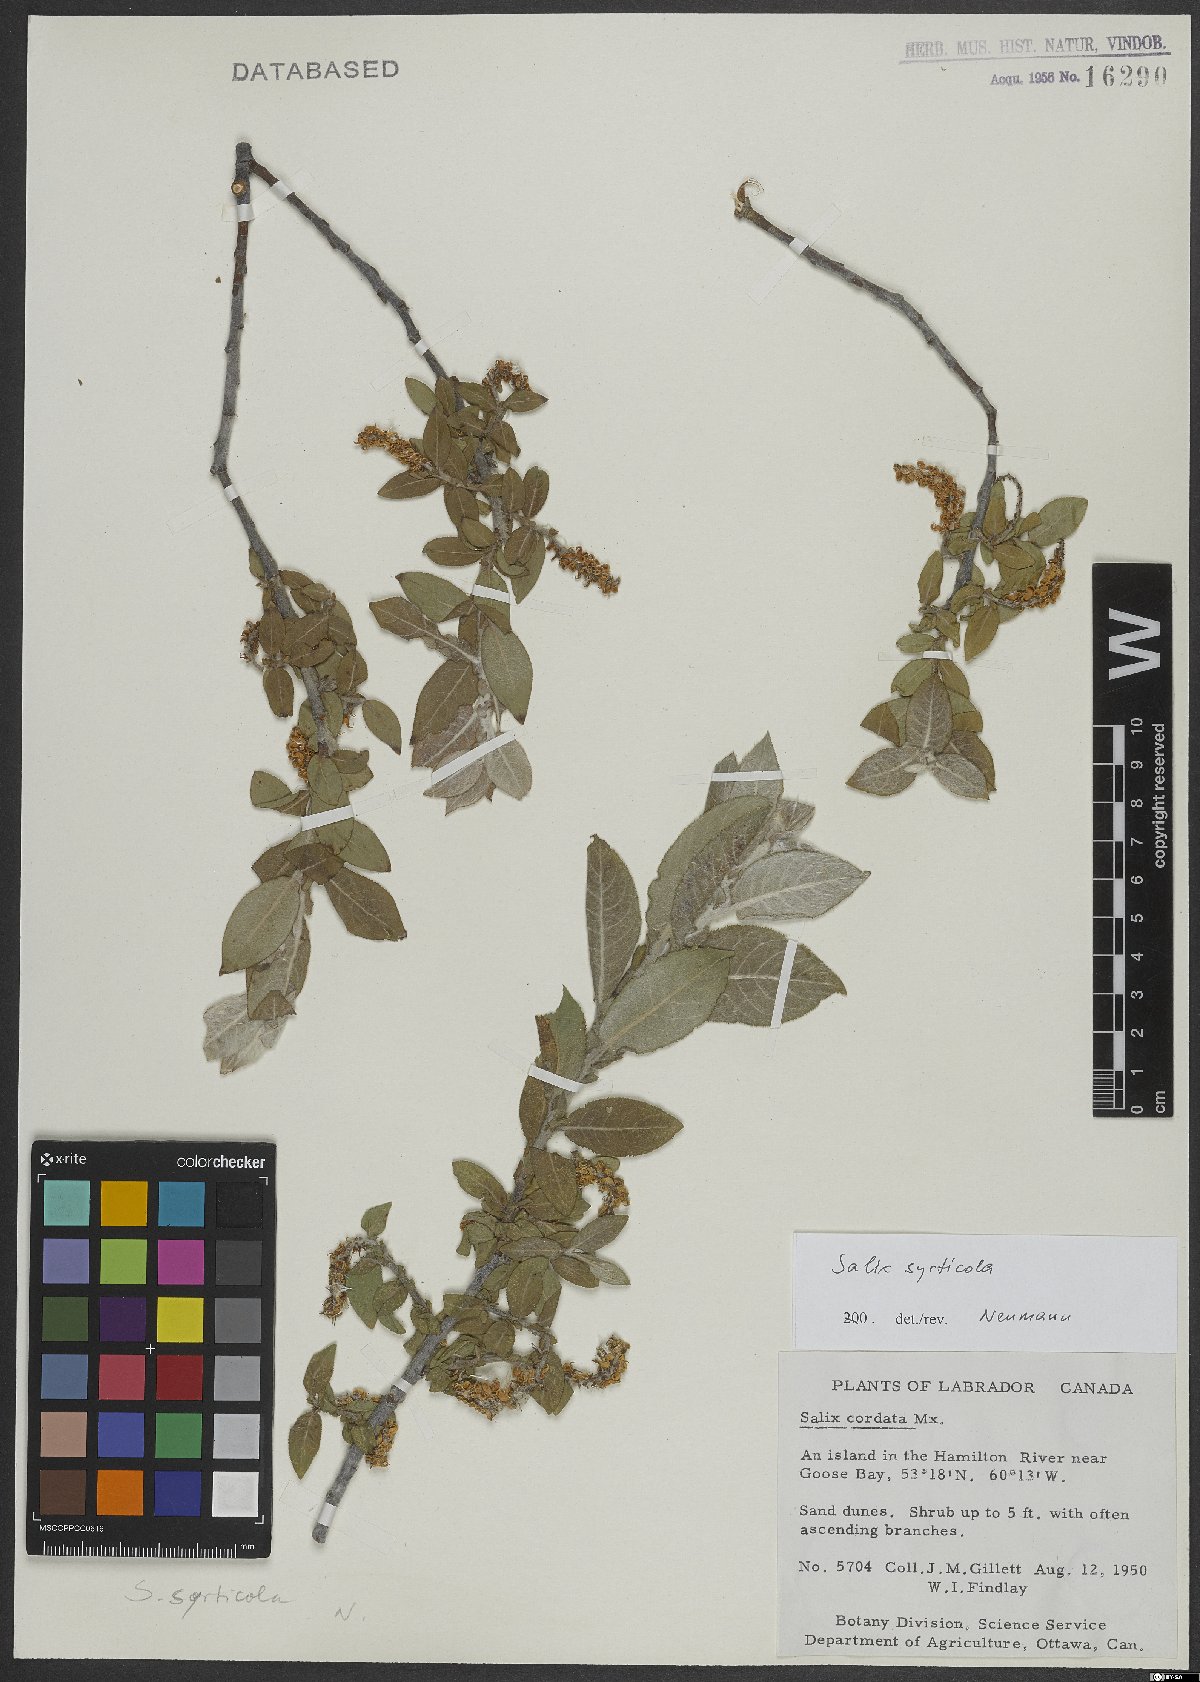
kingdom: Plantae
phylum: Tracheophyta
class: Magnoliopsida
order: Malpighiales
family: Salicaceae
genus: Salix
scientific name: Salix cordata
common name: Heart-leaf willow
